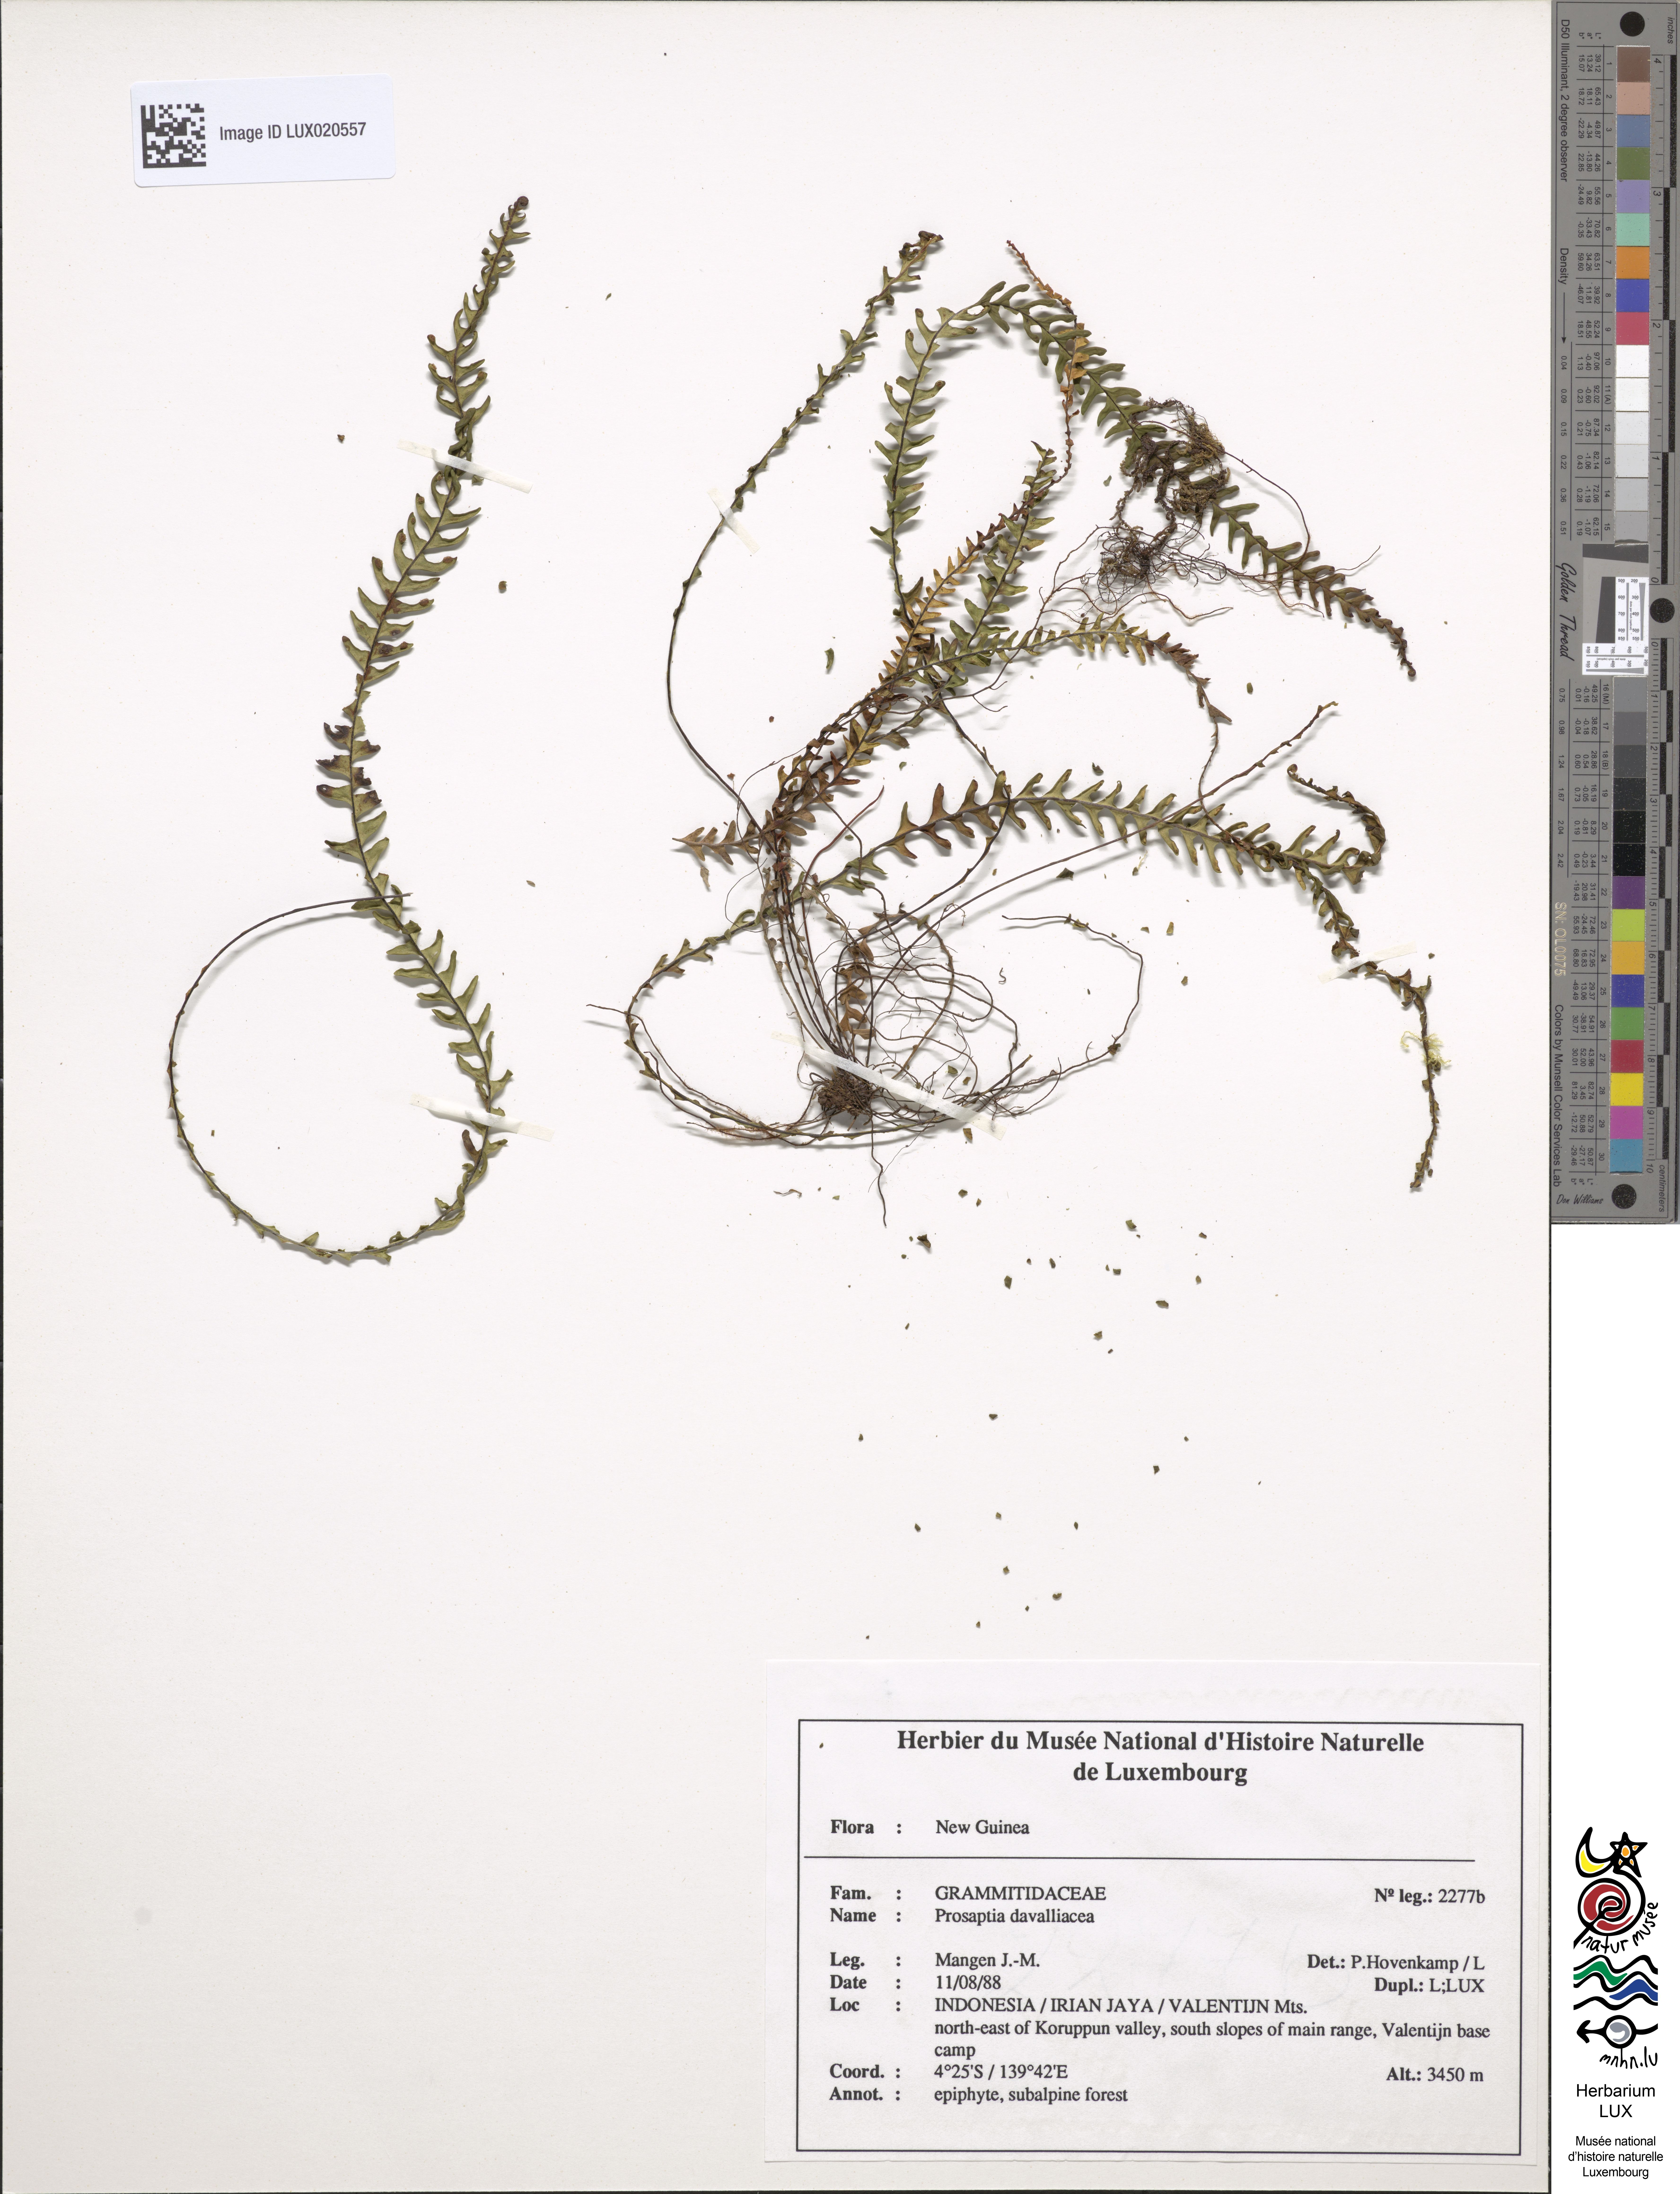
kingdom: Plantae
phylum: Tracheophyta
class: Polypodiopsida
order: Polypodiales
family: Polypodiaceae
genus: Prosaptia
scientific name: Prosaptia davalliacea
